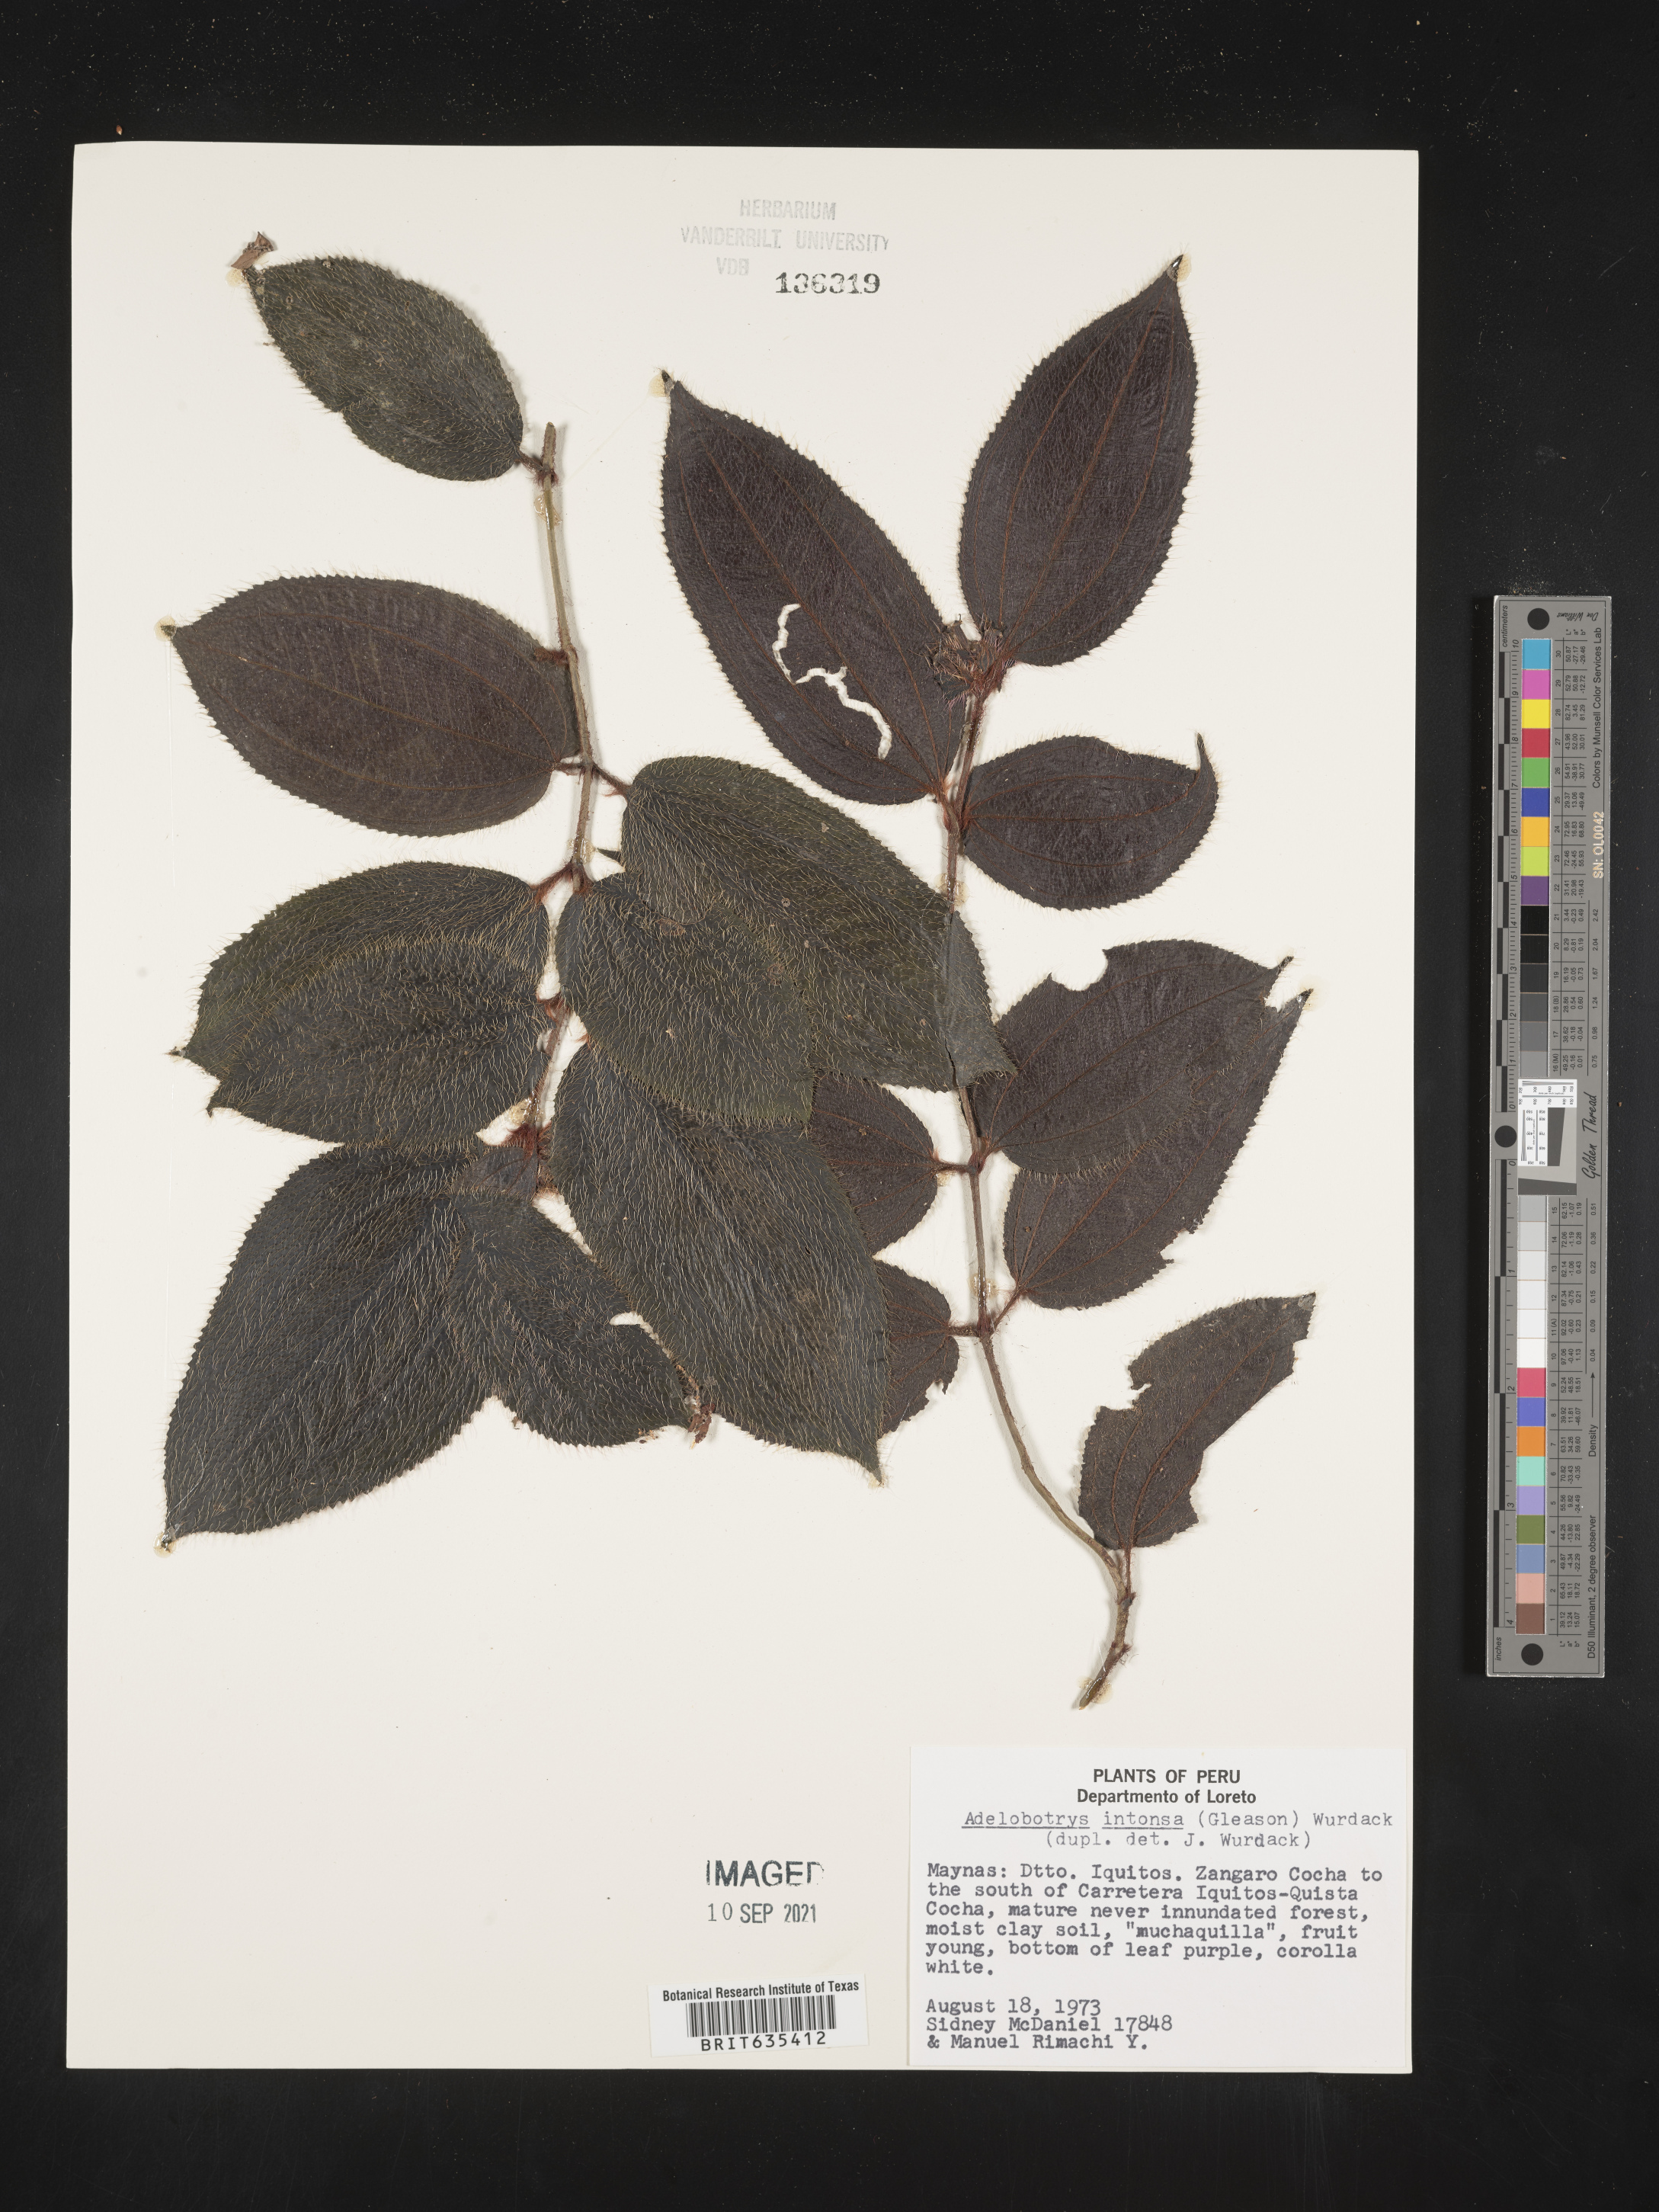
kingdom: Plantae
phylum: Tracheophyta
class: Magnoliopsida
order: Myrtales
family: Melastomataceae
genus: Adelobotrys
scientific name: Adelobotrys
